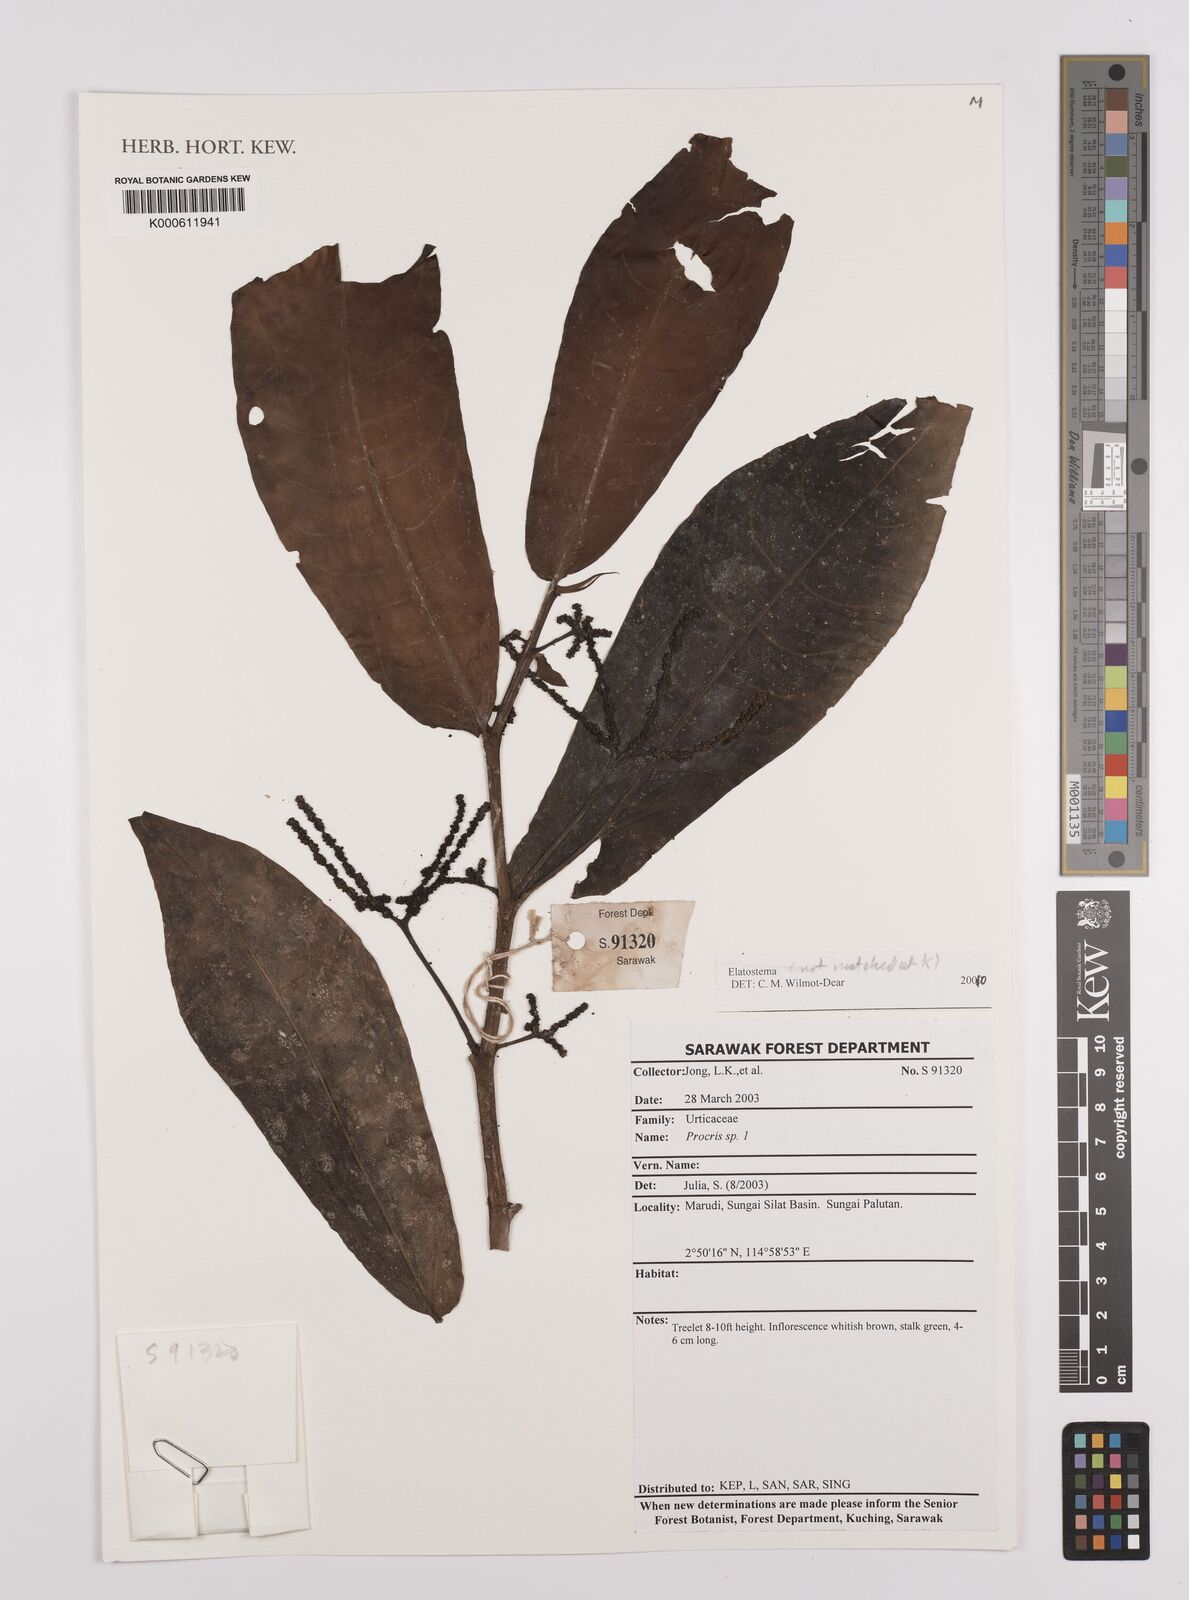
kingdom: Plantae
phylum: Tracheophyta
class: Magnoliopsida
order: Rosales
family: Urticaceae
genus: Elatostema
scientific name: Elatostema
